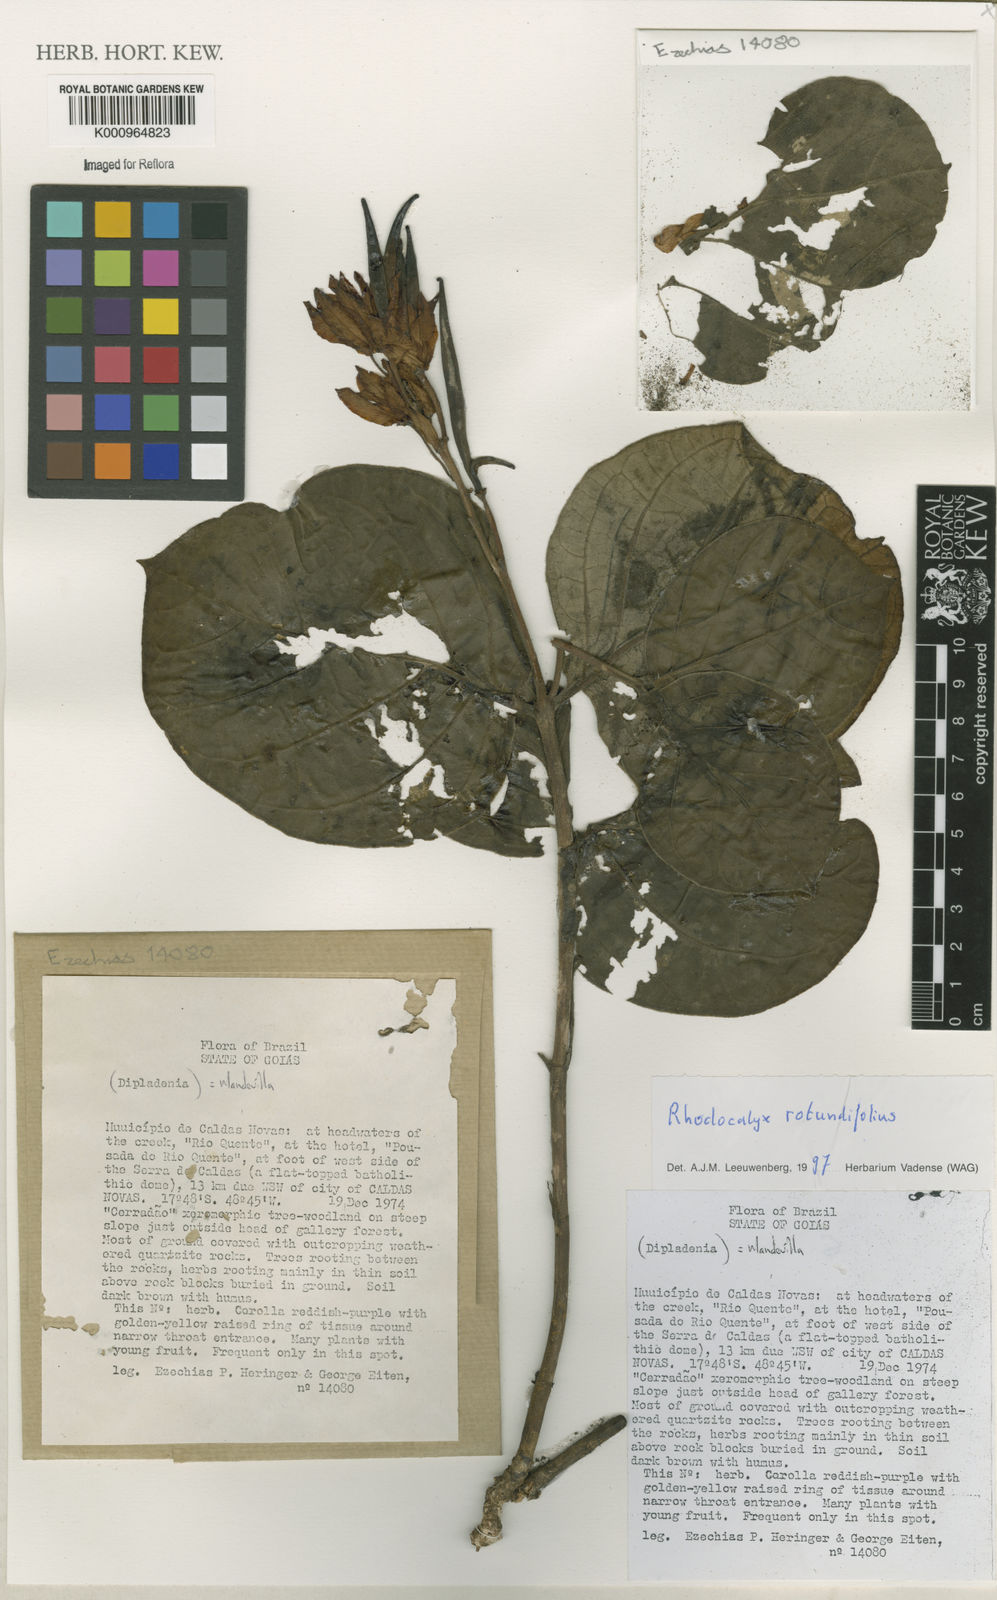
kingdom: Plantae
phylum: Tracheophyta
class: Magnoliopsida
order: Gentianales
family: Apocynaceae
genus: Rhodocalyx
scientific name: Rhodocalyx
